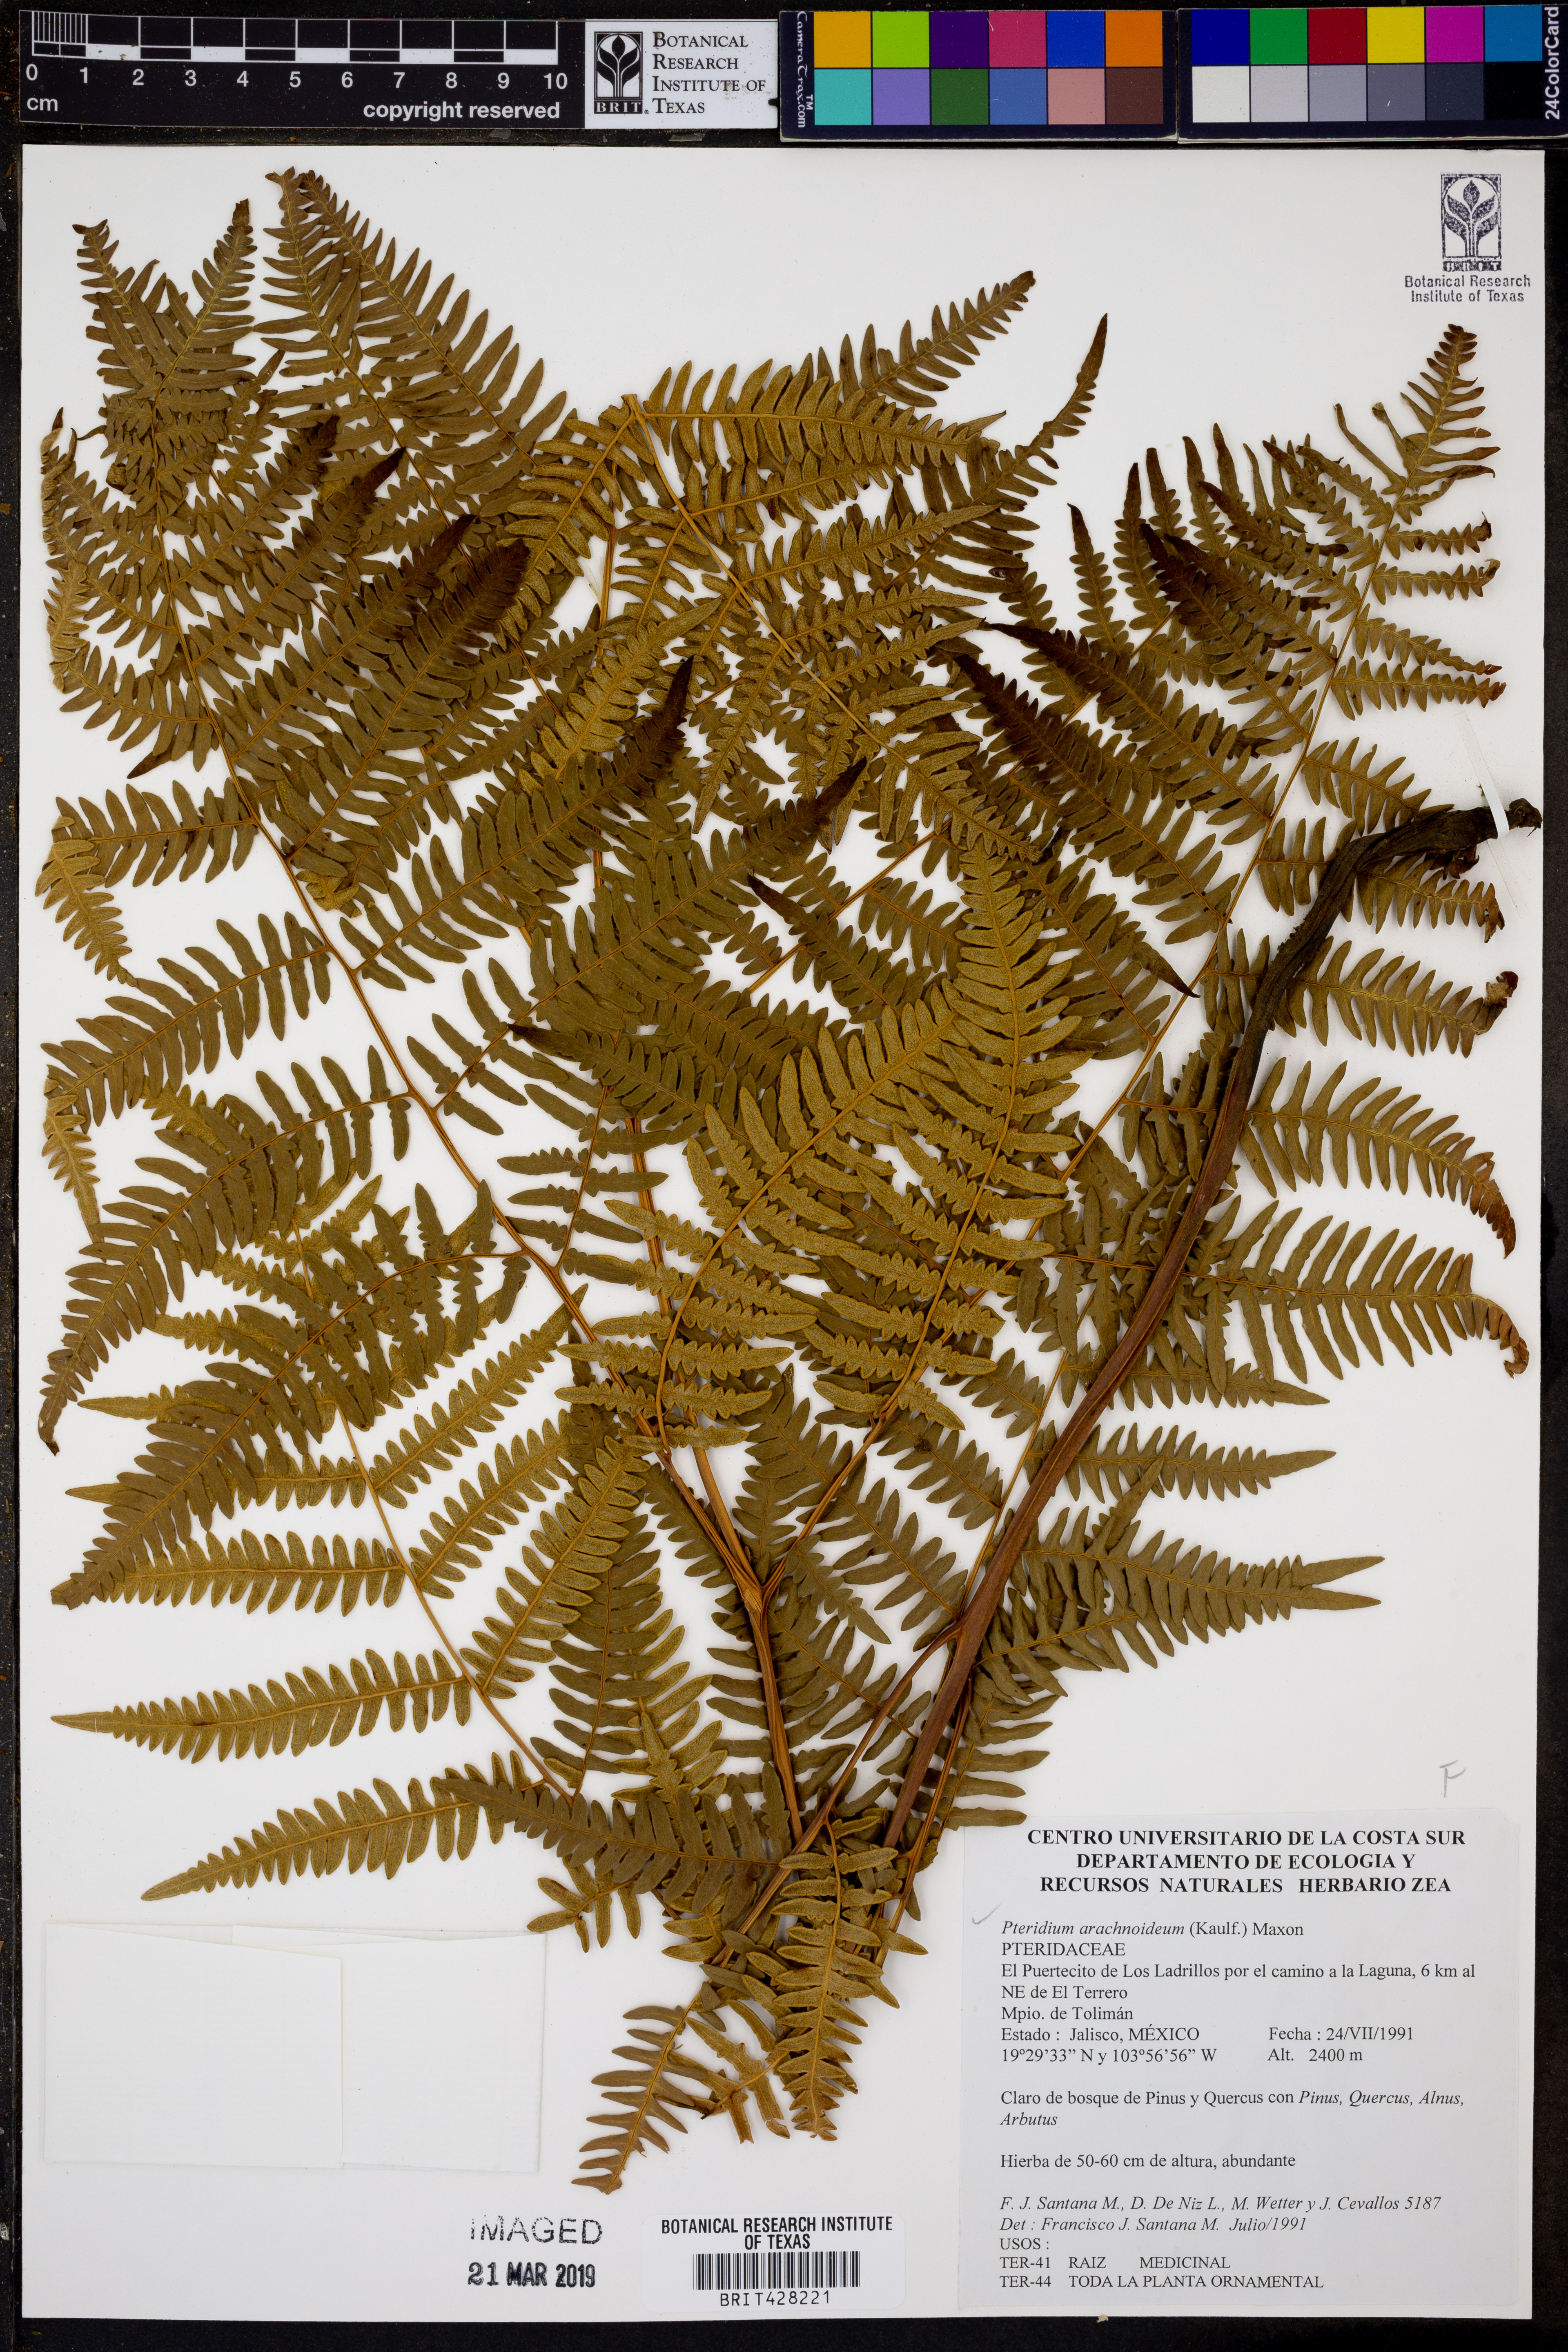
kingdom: Plantae
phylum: Tracheophyta
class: Polypodiopsida
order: Polypodiales
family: Dennstaedtiaceae
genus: Pteridium
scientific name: Pteridium esculentum
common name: Bracken fern
